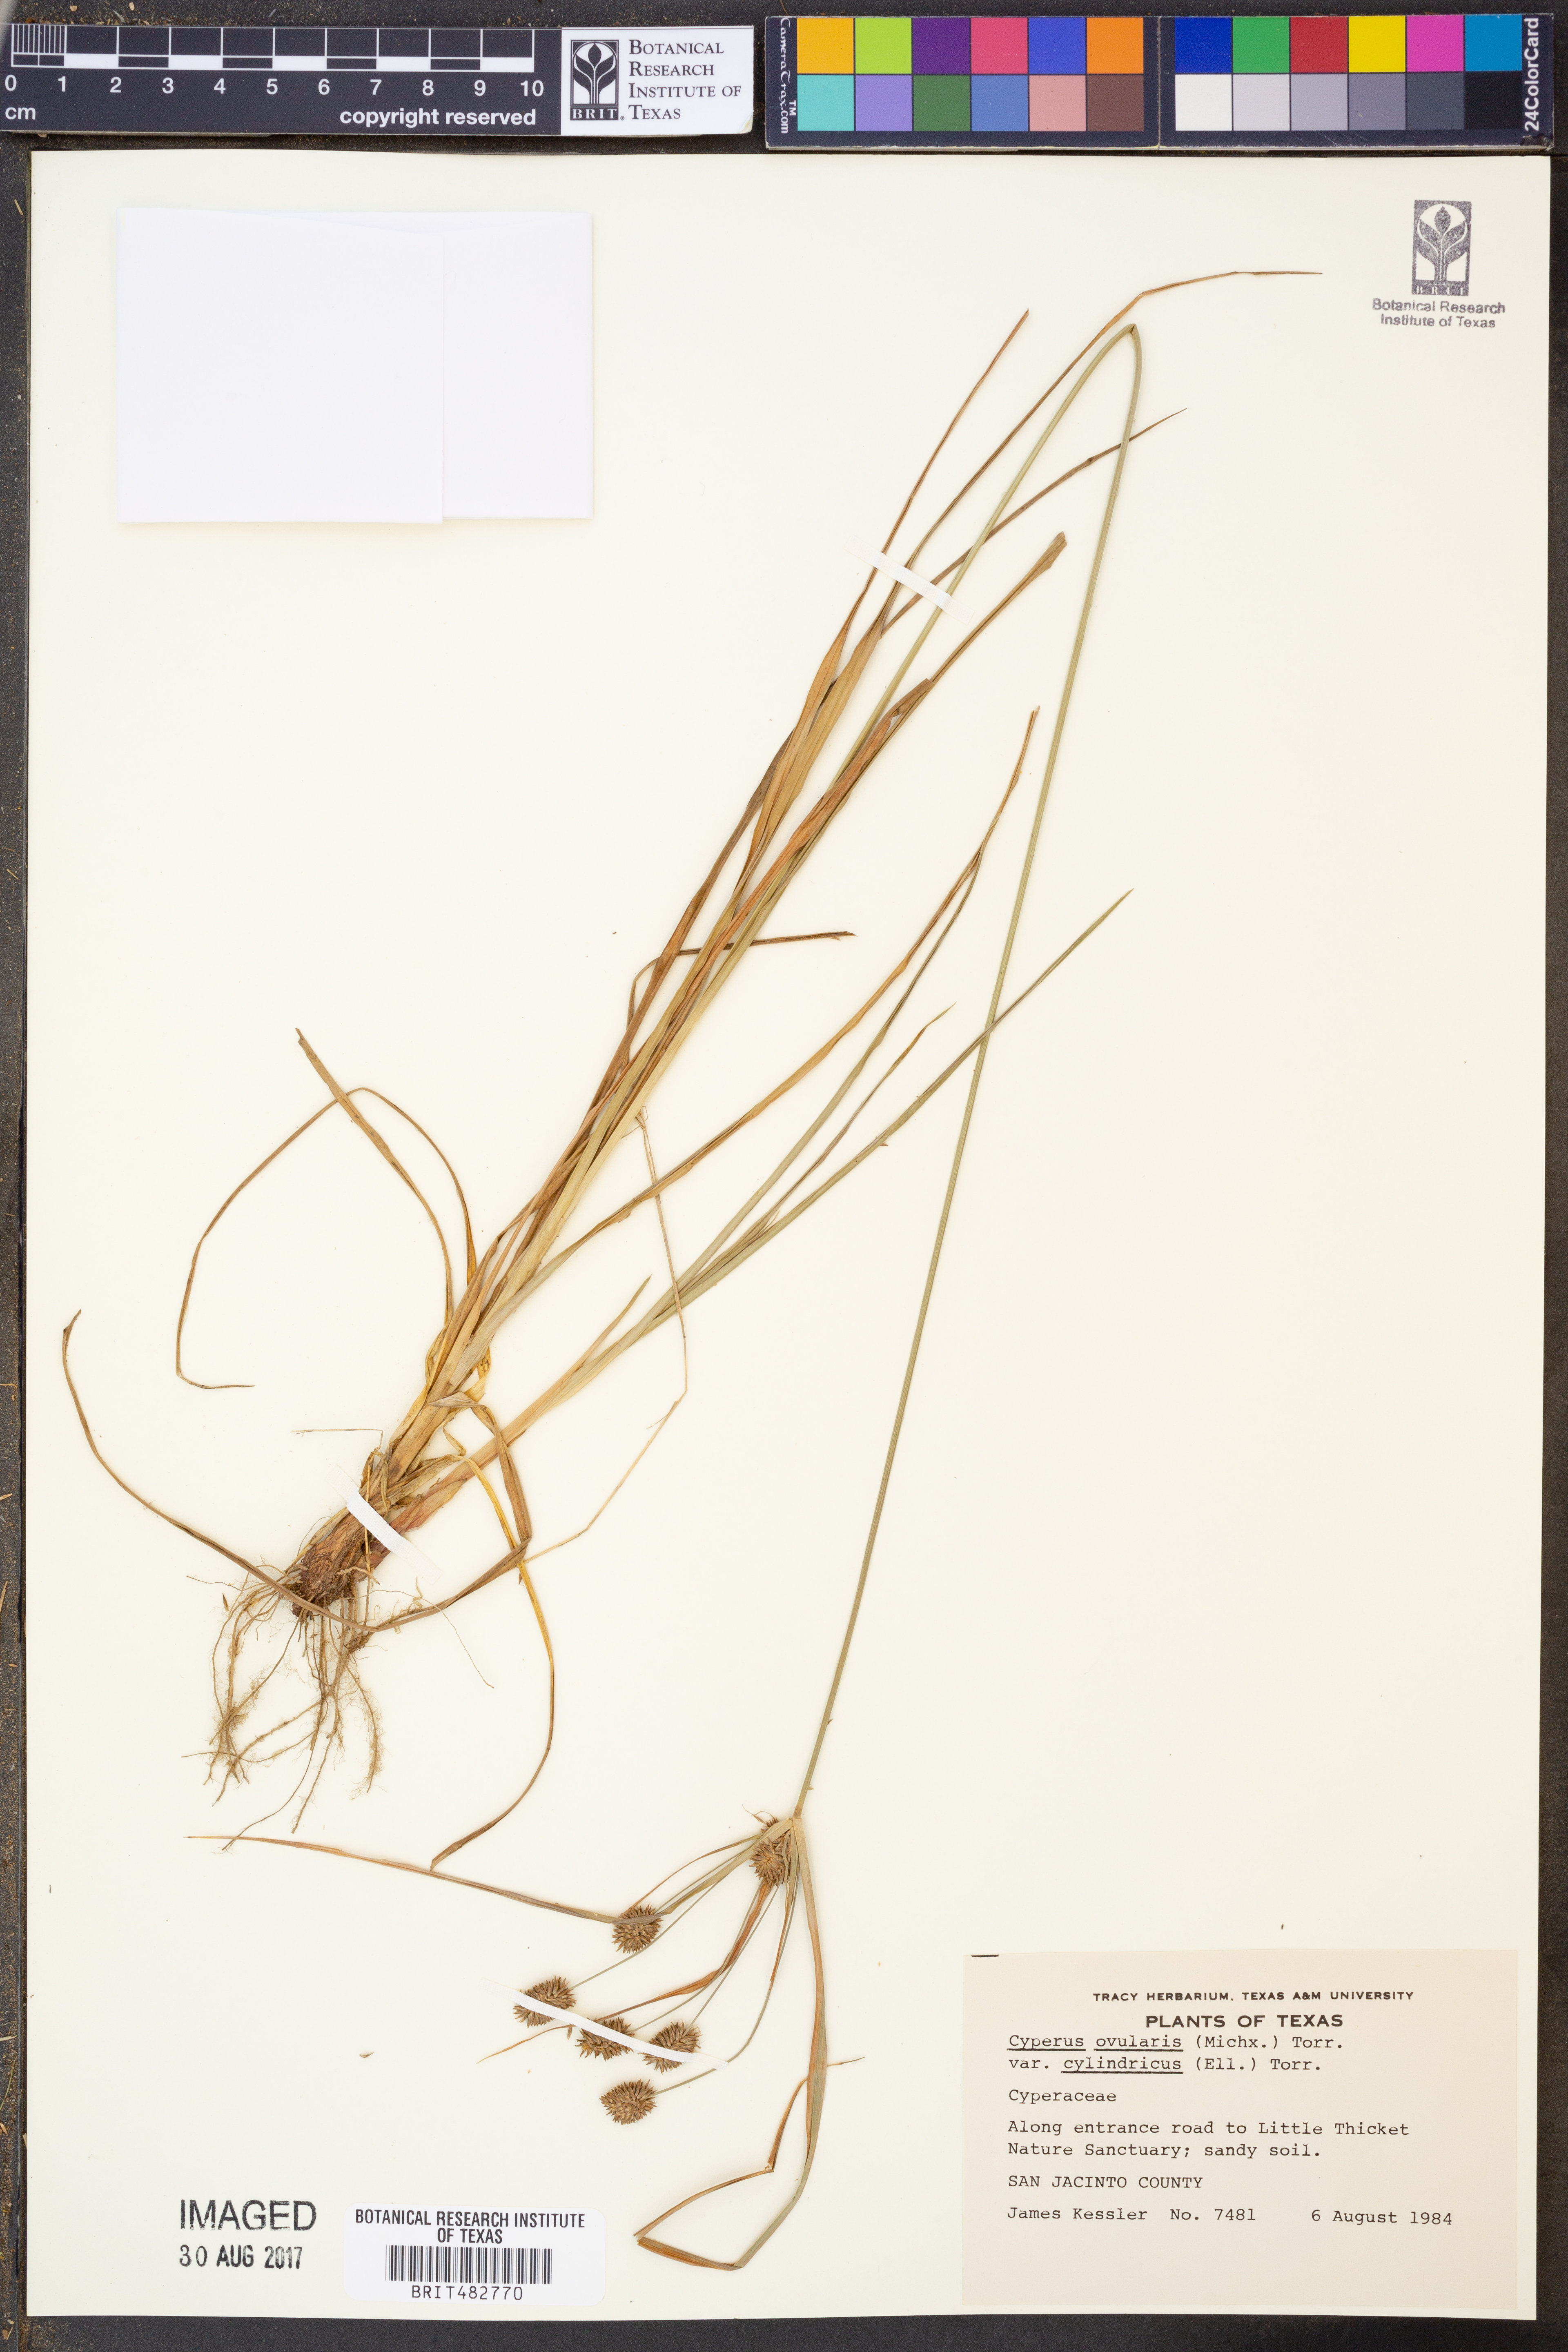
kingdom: Plantae
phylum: Tracheophyta
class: Liliopsida
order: Poales
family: Cyperaceae
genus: Cyperus
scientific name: Cyperus retrorsus
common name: Pinebarren flat sedge
